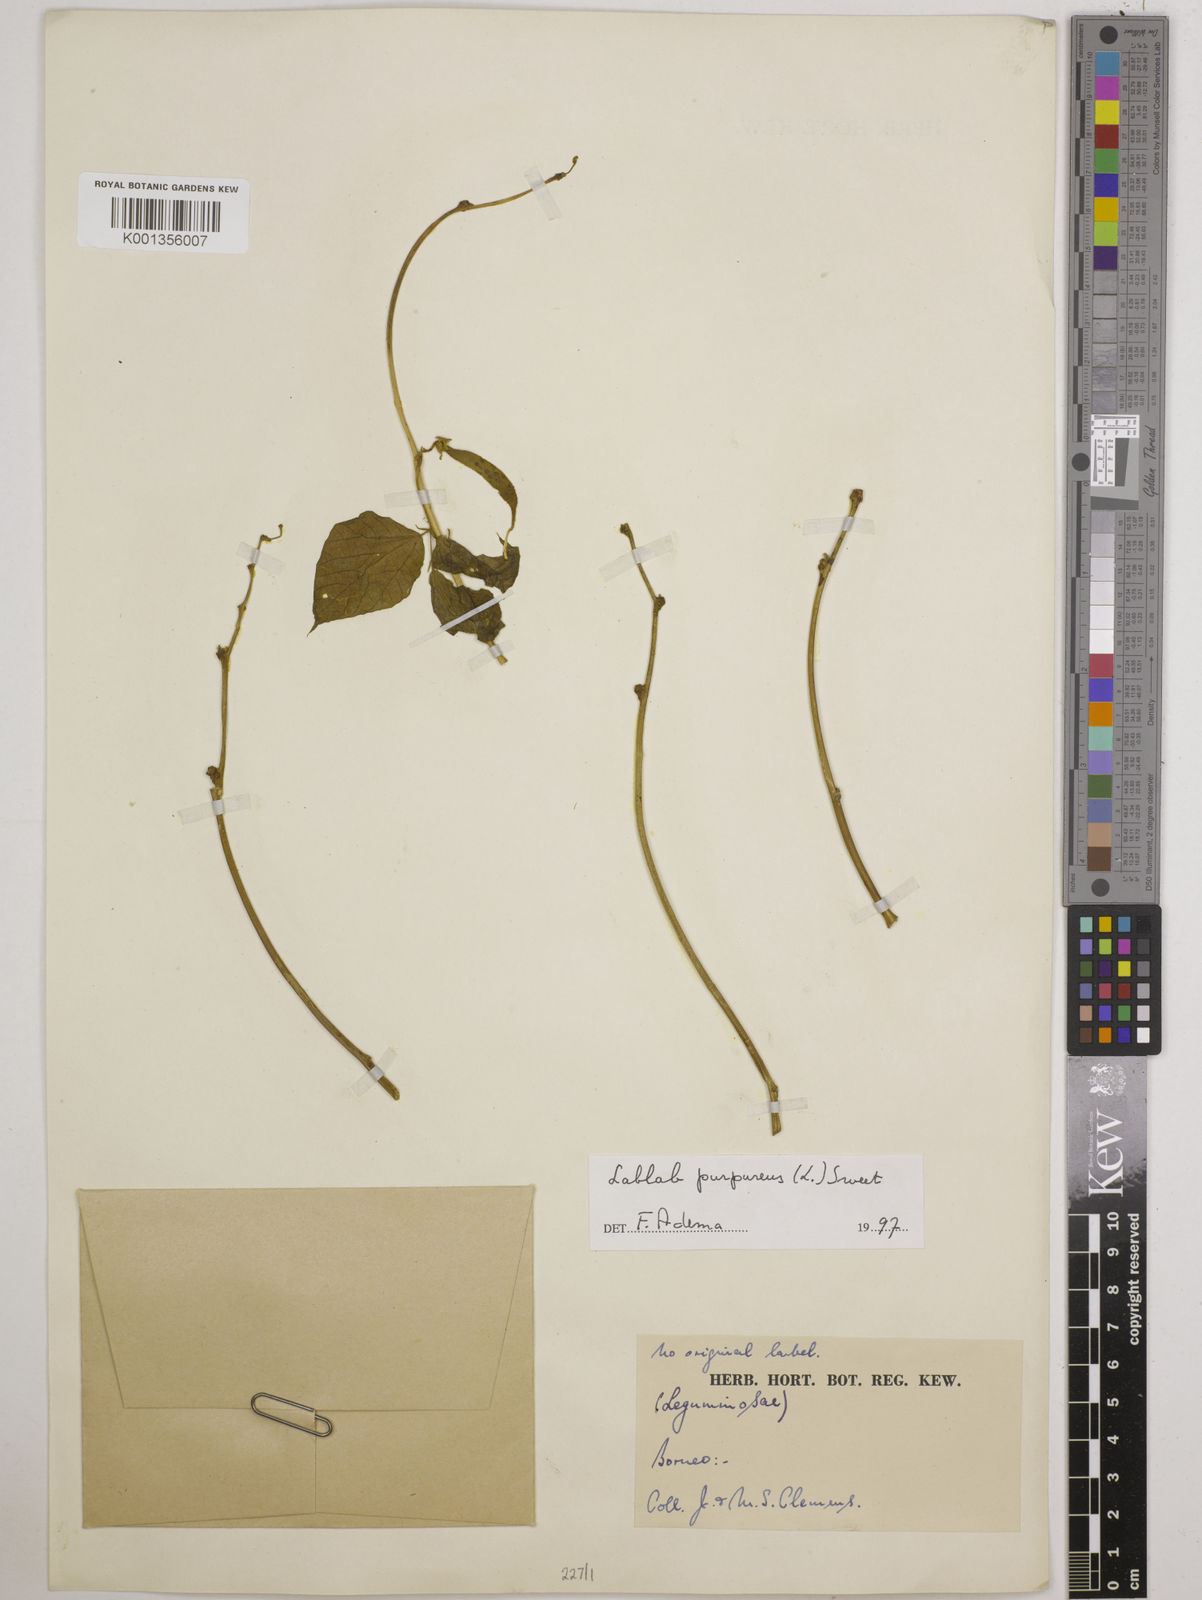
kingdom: Plantae
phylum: Tracheophyta
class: Magnoliopsida
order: Fabales
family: Fabaceae
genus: Lablab
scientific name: Lablab purpureus
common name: Lablab-bean
